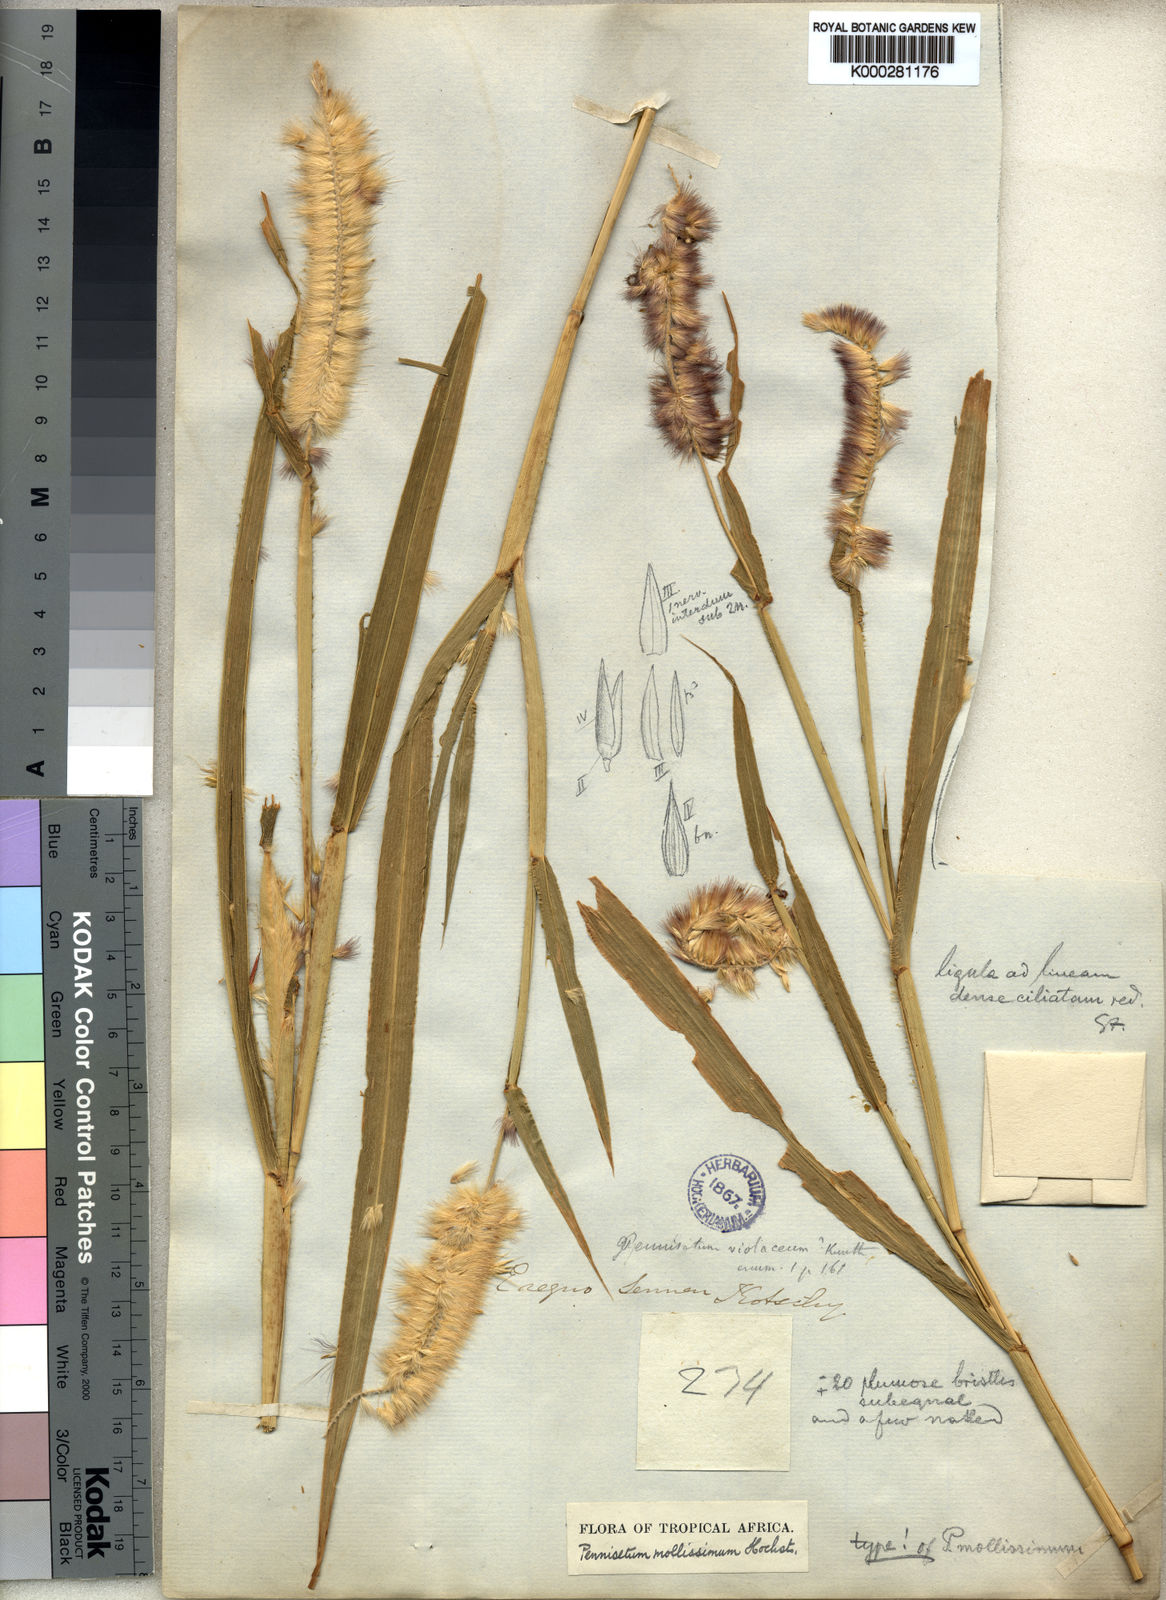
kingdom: Plantae
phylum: Tracheophyta
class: Liliopsida
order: Poales
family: Poaceae
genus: Cenchrus
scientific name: Cenchrus violaceus
